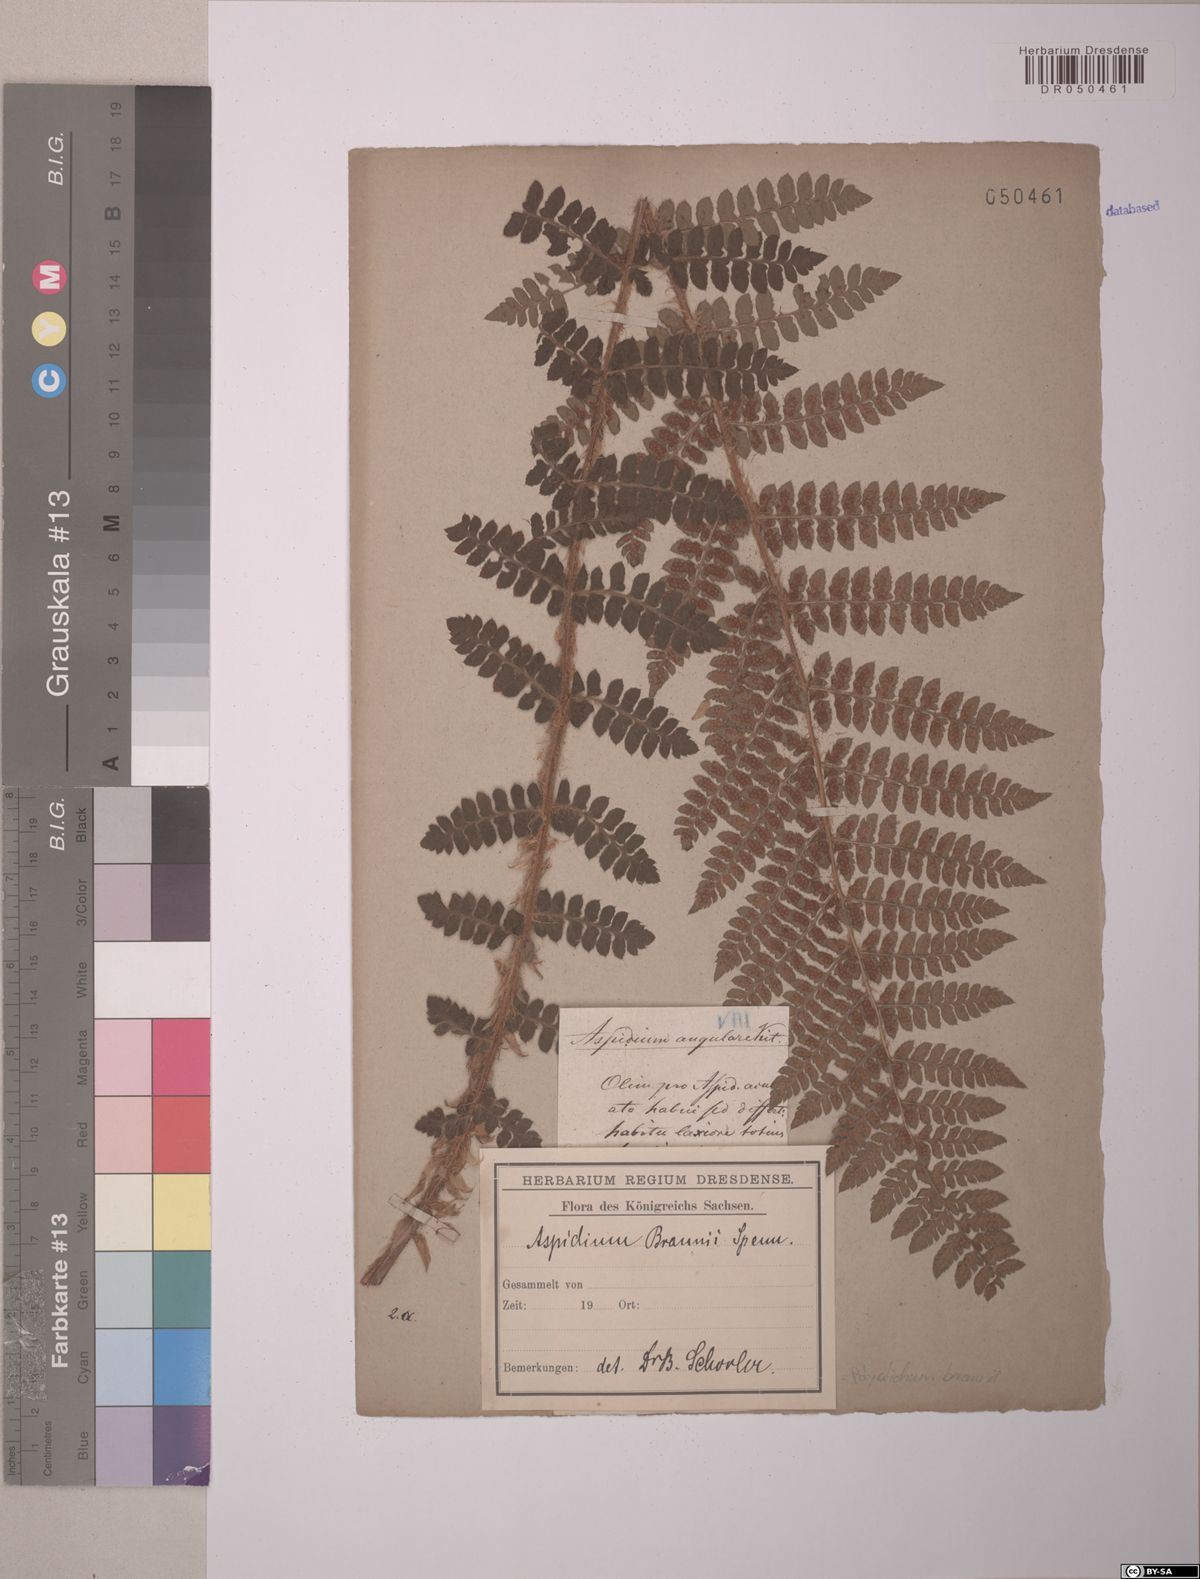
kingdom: Plantae
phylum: Tracheophyta
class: Polypodiopsida
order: Polypodiales
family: Dryopteridaceae
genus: Polystichum
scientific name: Polystichum braunii
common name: Braun's holly fern
